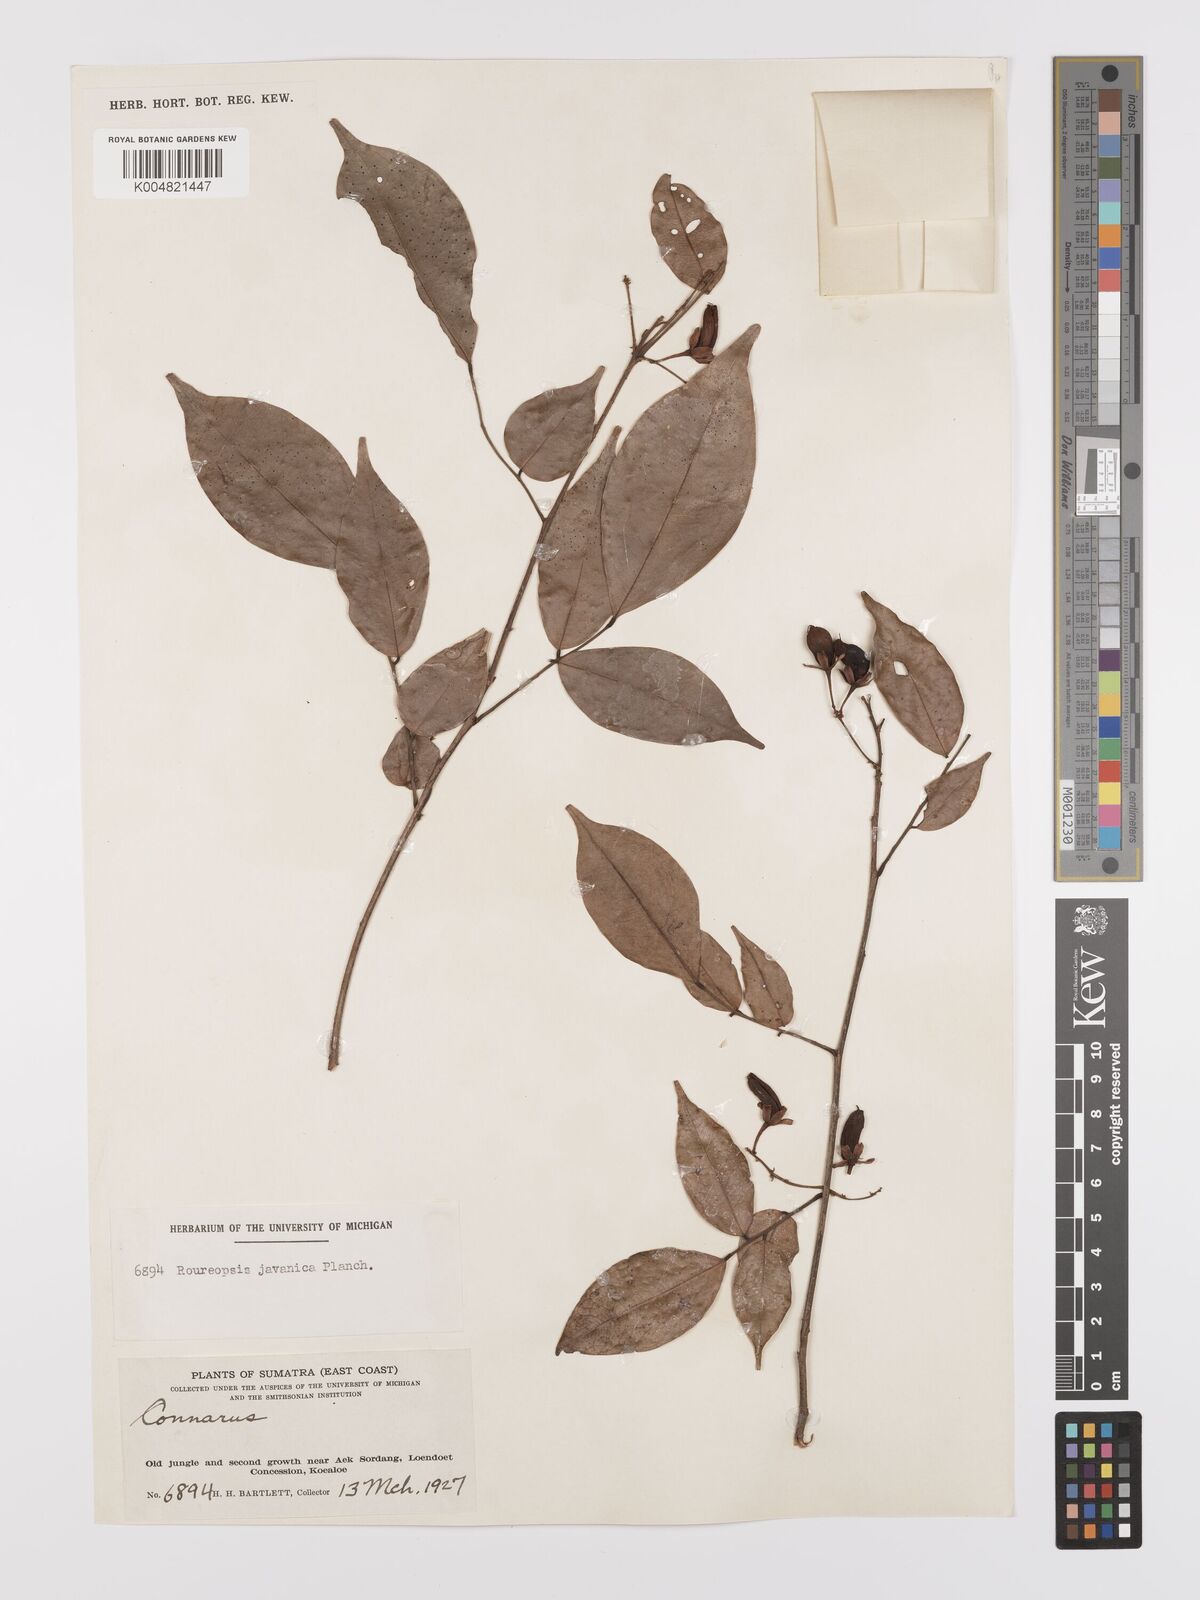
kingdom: Plantae
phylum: Tracheophyta
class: Magnoliopsida
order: Oxalidales
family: Connaraceae
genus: Rourea
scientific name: Rourea emarginata
